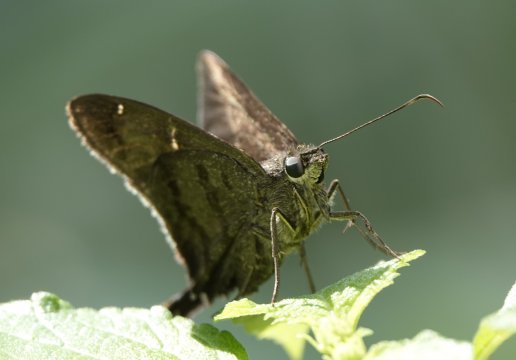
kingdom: Animalia
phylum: Arthropoda
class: Insecta
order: Lepidoptera
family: Hesperiidae
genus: Urbanus
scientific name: Urbanus tanna
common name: Tanna Longtail
